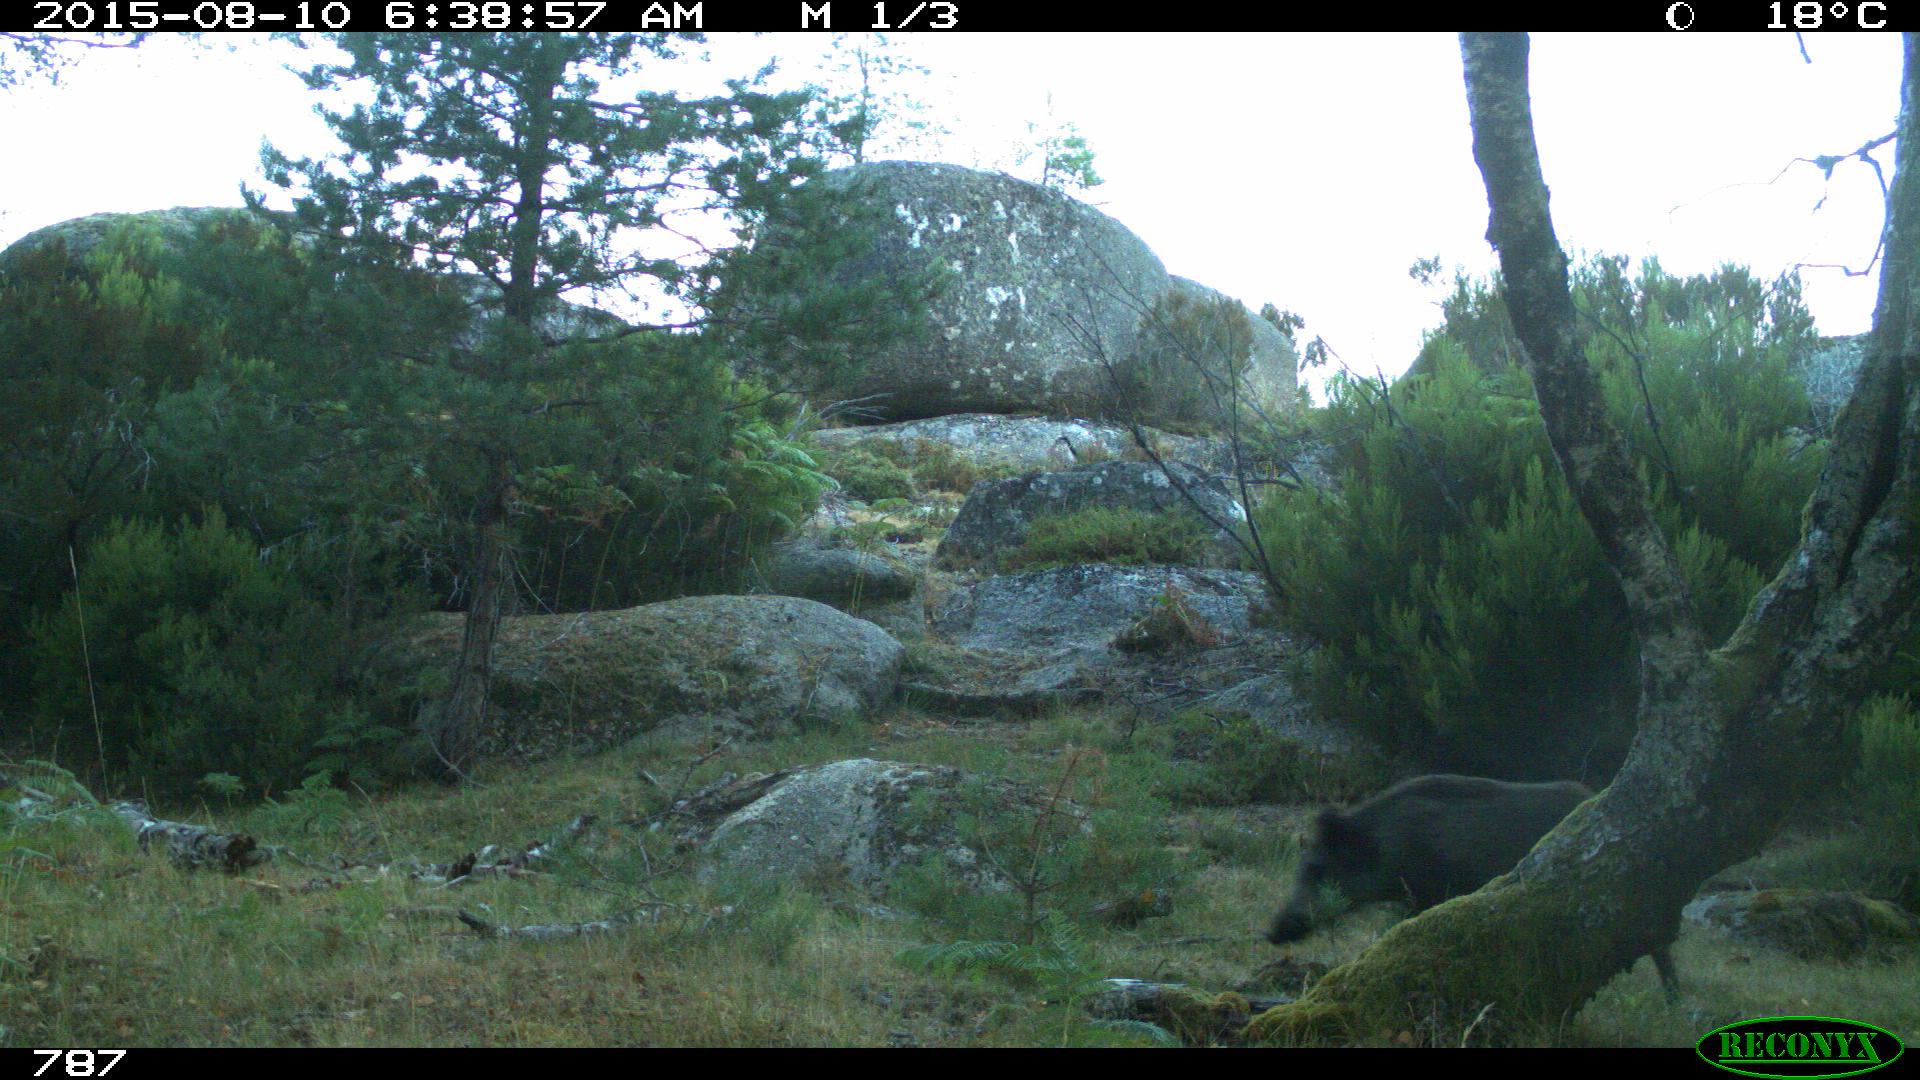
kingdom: Animalia
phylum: Chordata
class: Mammalia
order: Artiodactyla
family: Suidae
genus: Sus
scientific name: Sus scrofa
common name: Wild boar
